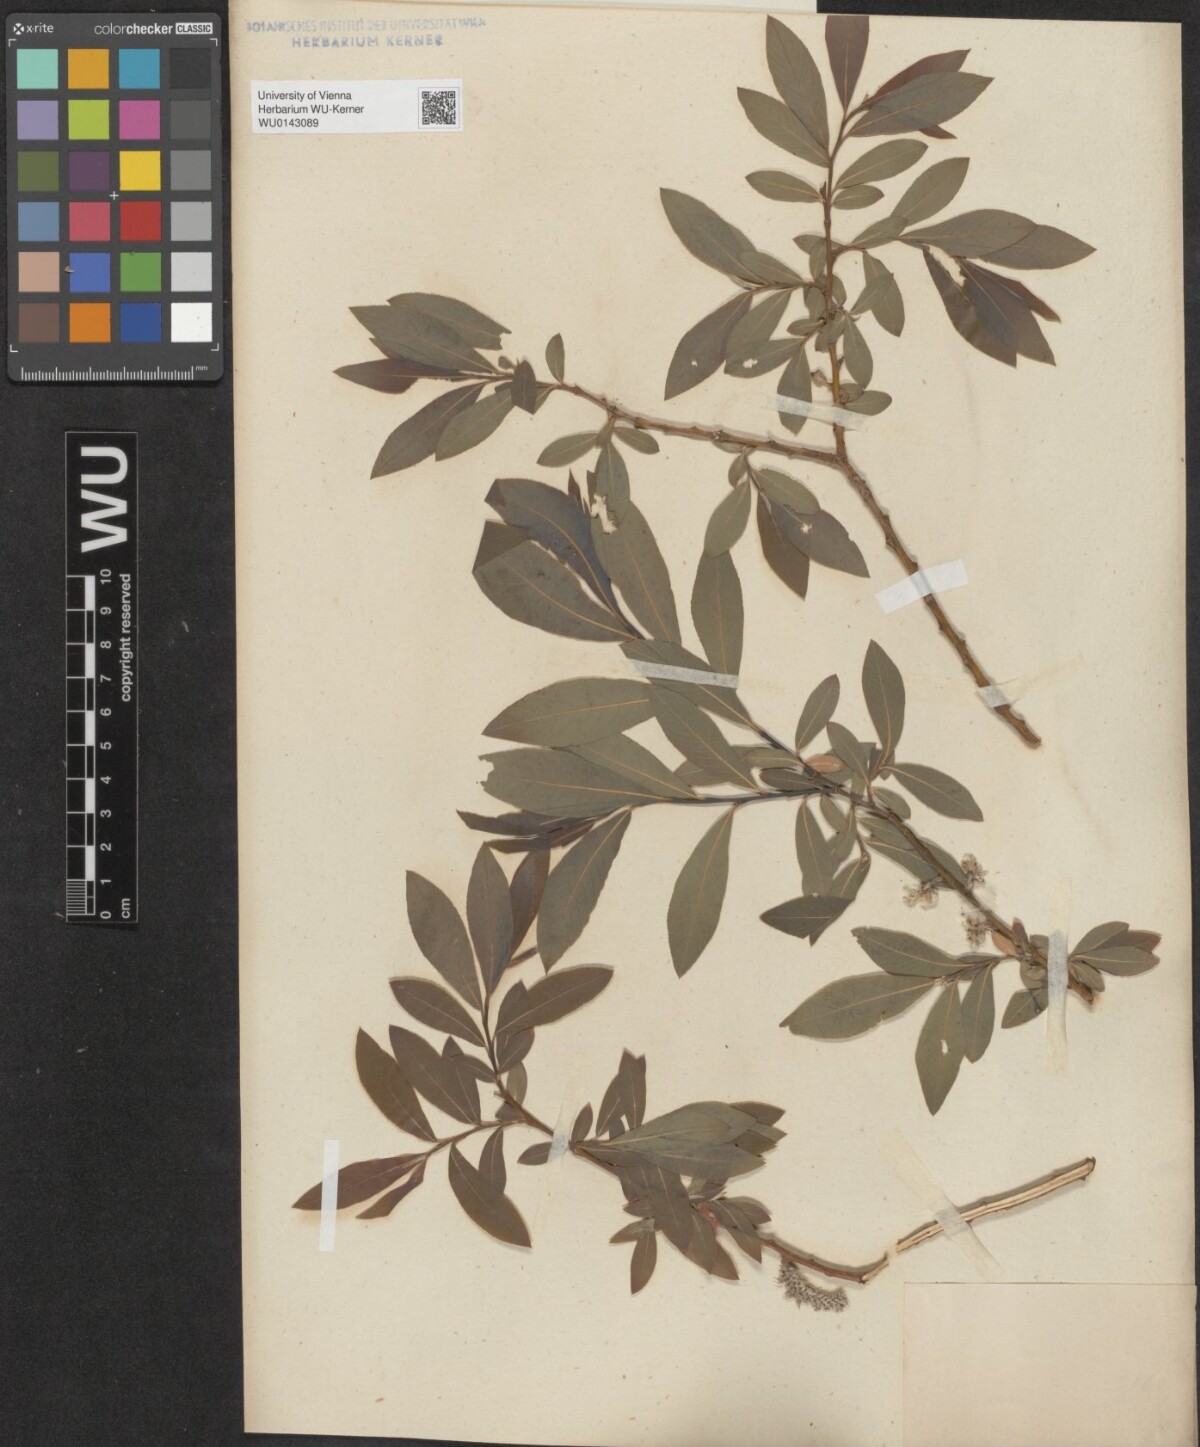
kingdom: Plantae
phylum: Tracheophyta
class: Magnoliopsida
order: Malpighiales
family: Salicaceae
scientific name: Salicaceae
